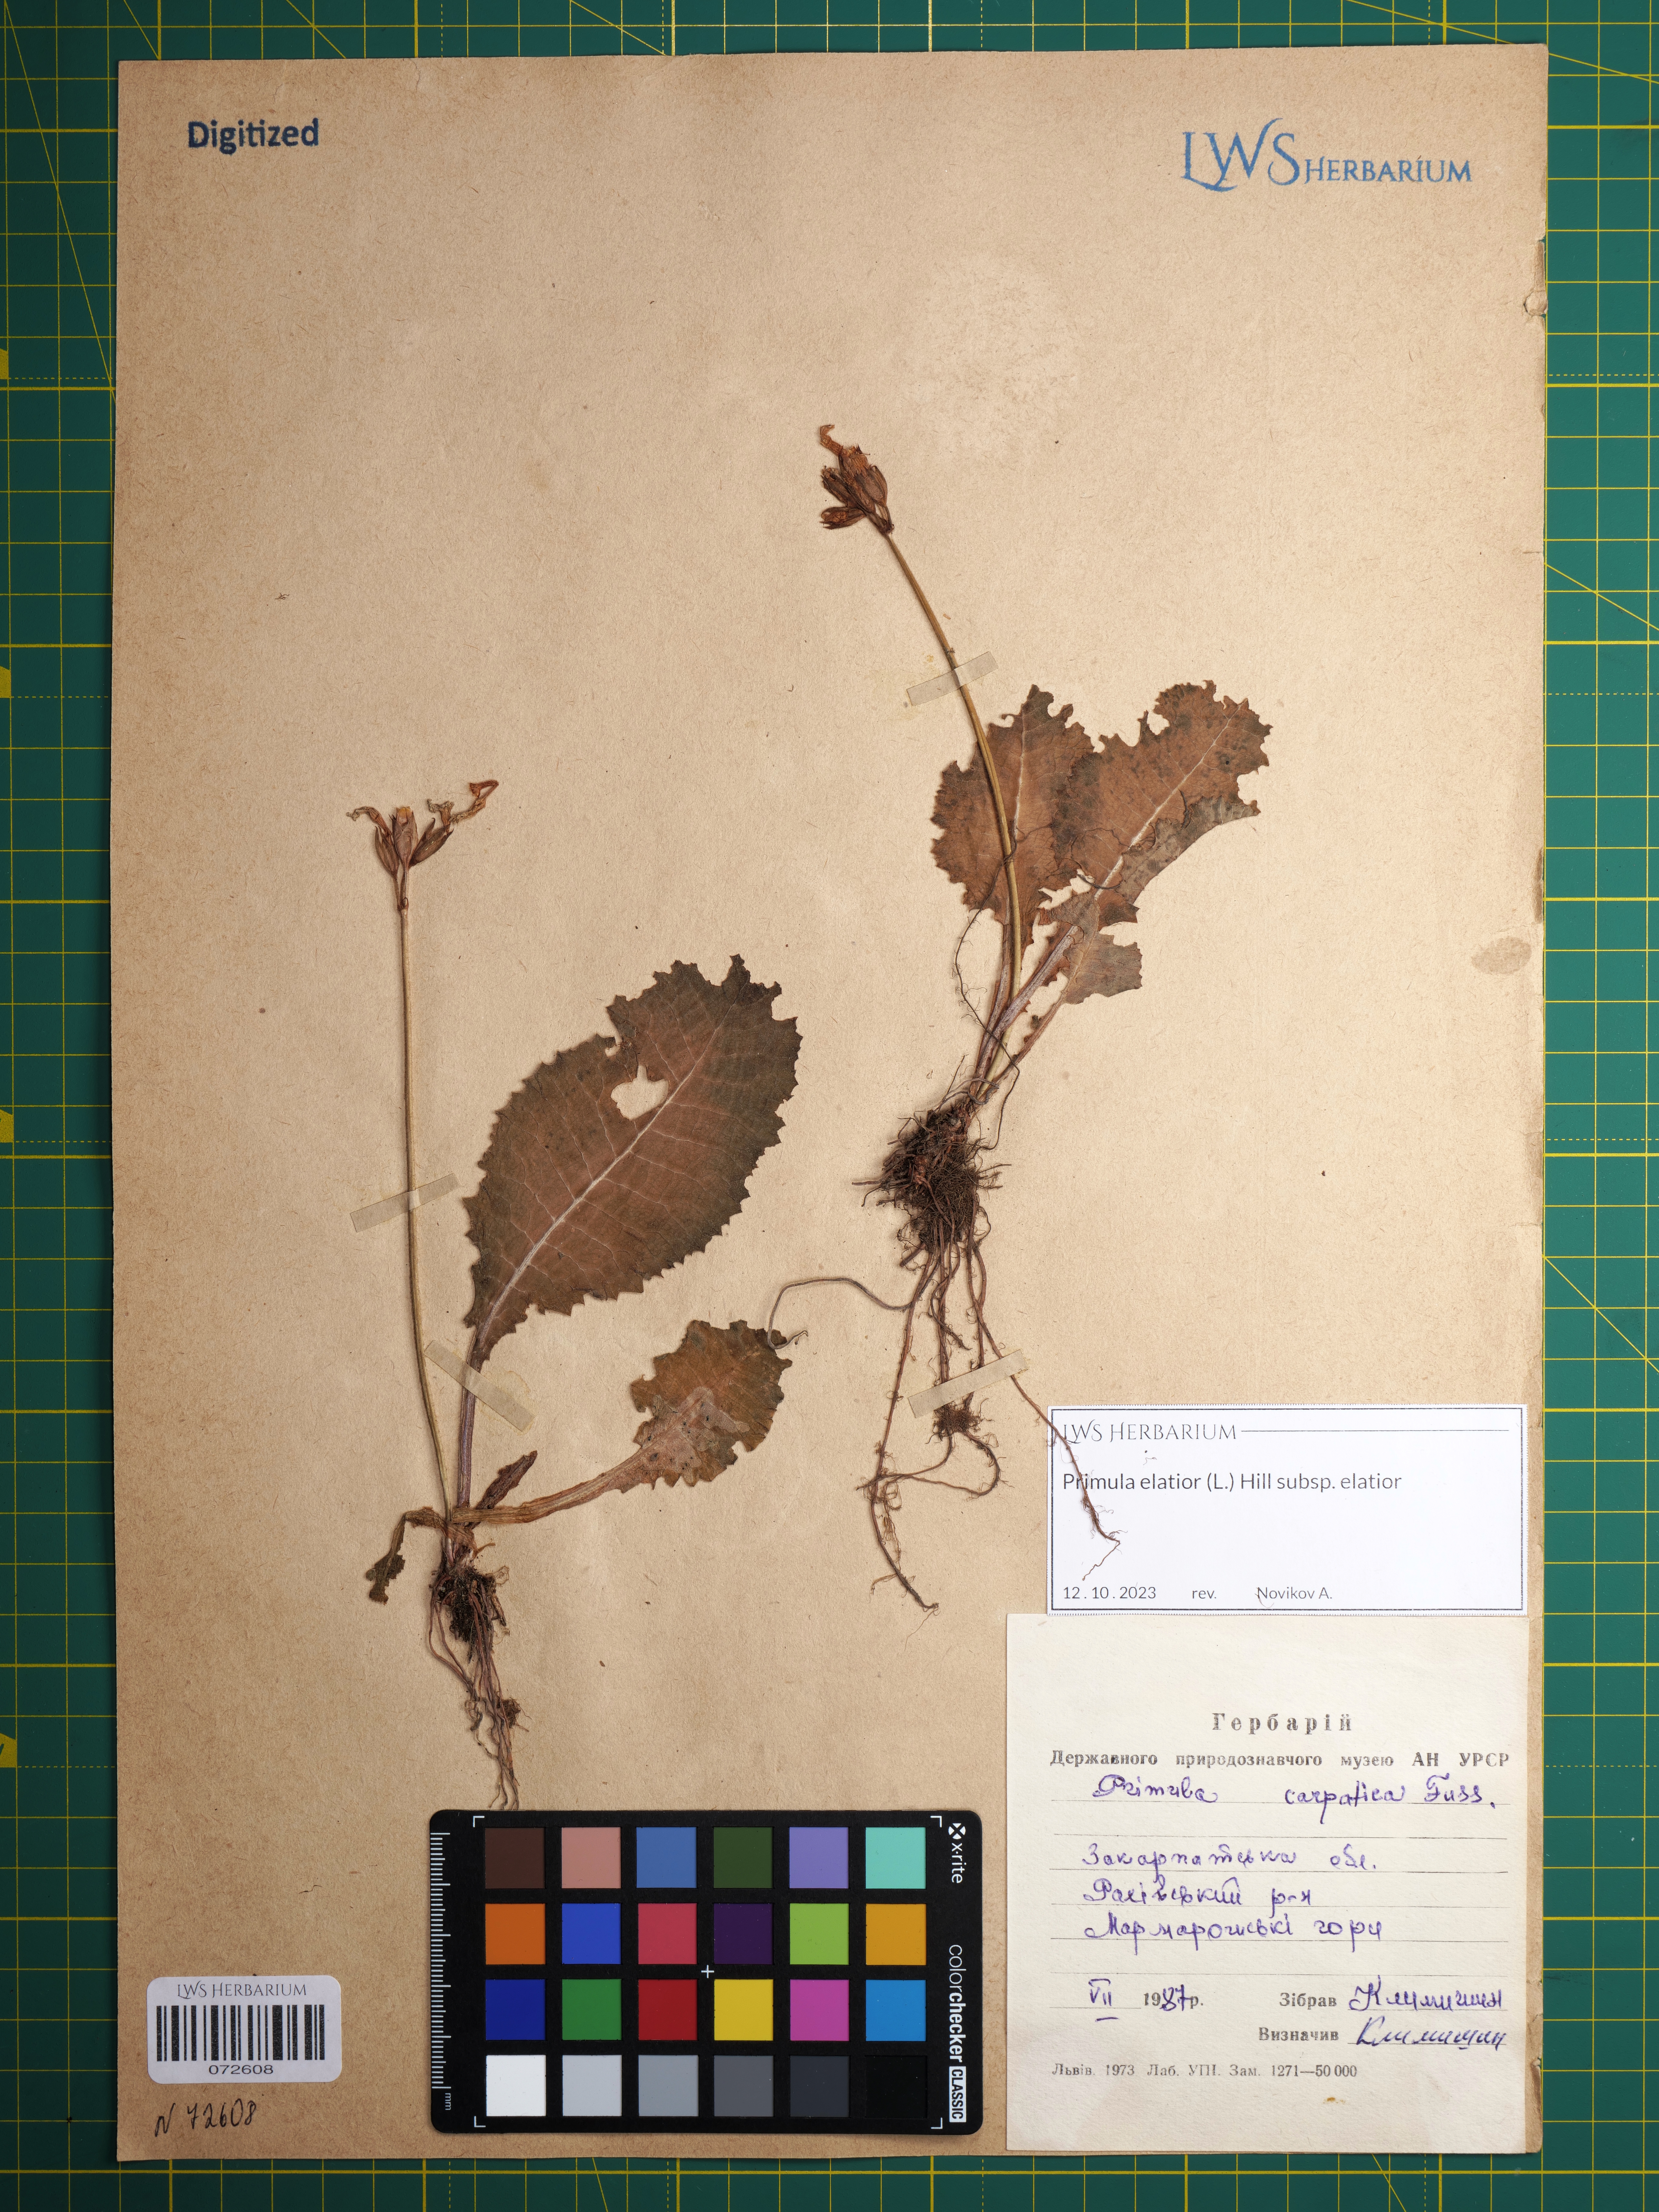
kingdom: Plantae
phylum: Tracheophyta
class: Magnoliopsida
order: Ericales
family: Primulaceae
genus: Primula
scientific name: Primula elatior
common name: Oxlip
